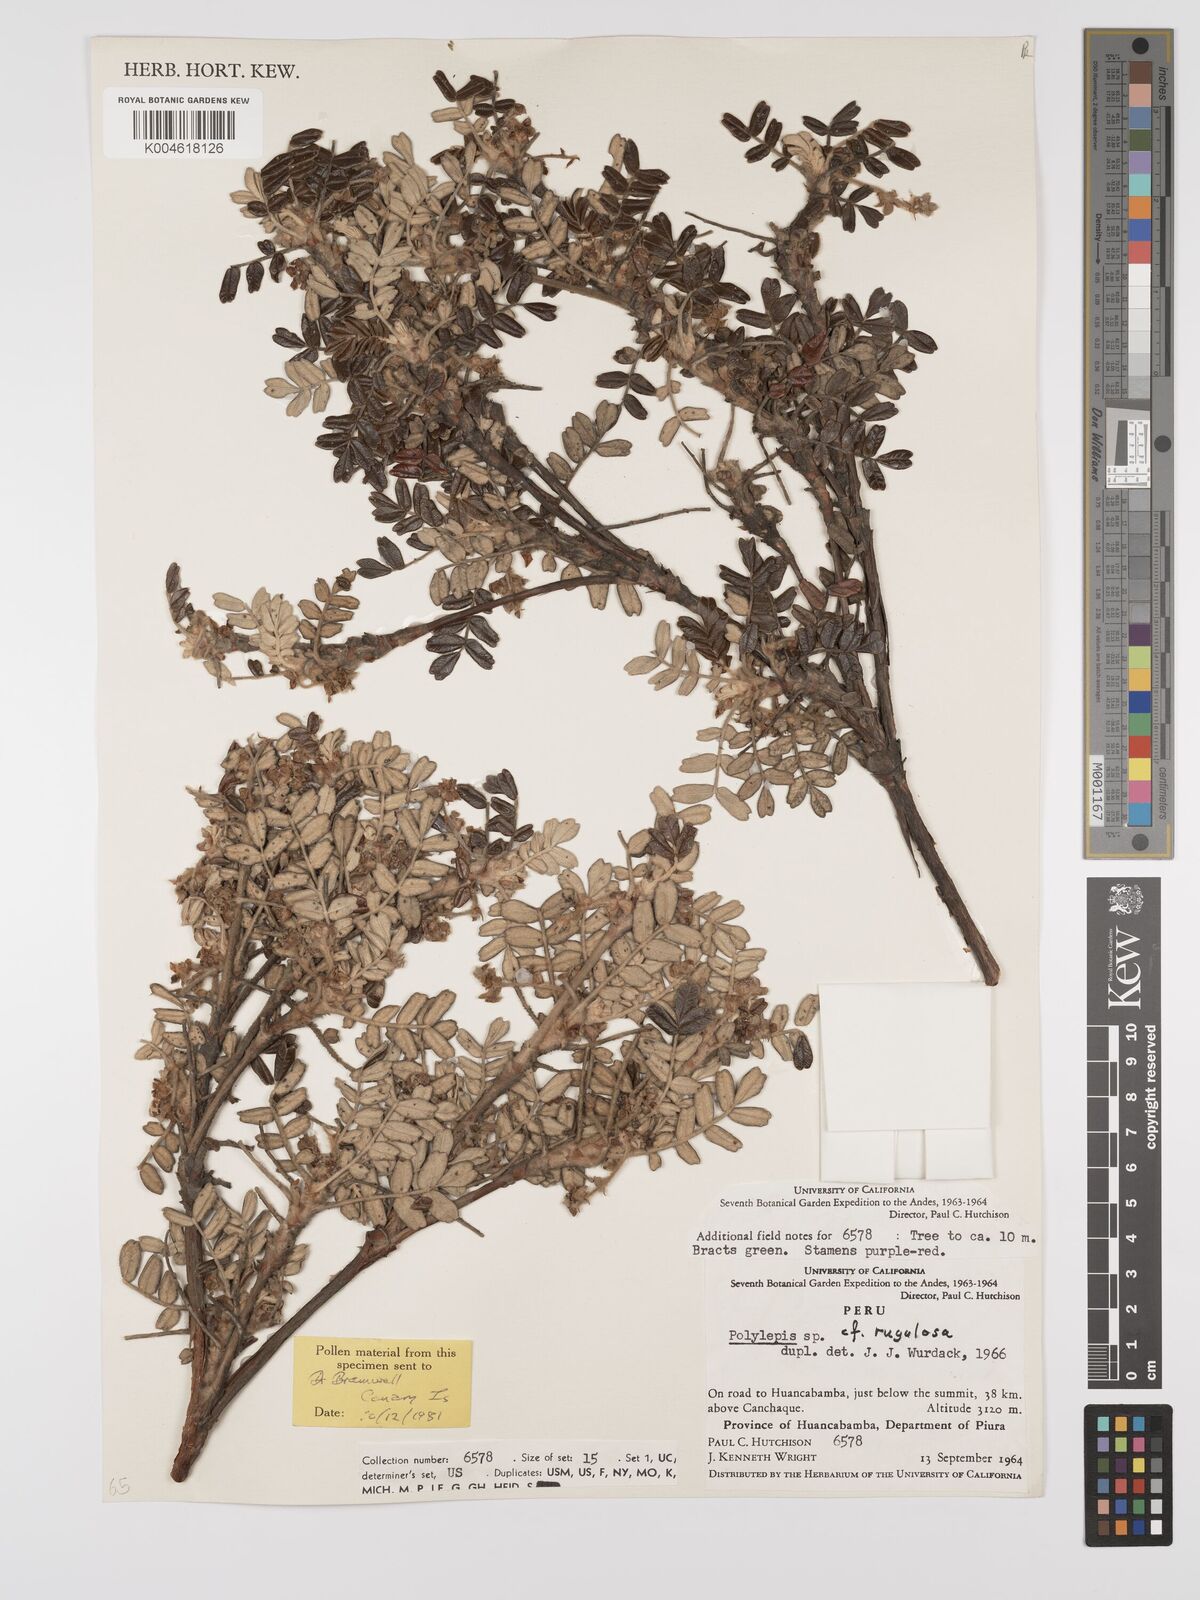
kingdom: Plantae
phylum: Tracheophyta
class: Magnoliopsida
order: Rosales
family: Rosaceae
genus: Polylepis
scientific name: Polylepis
